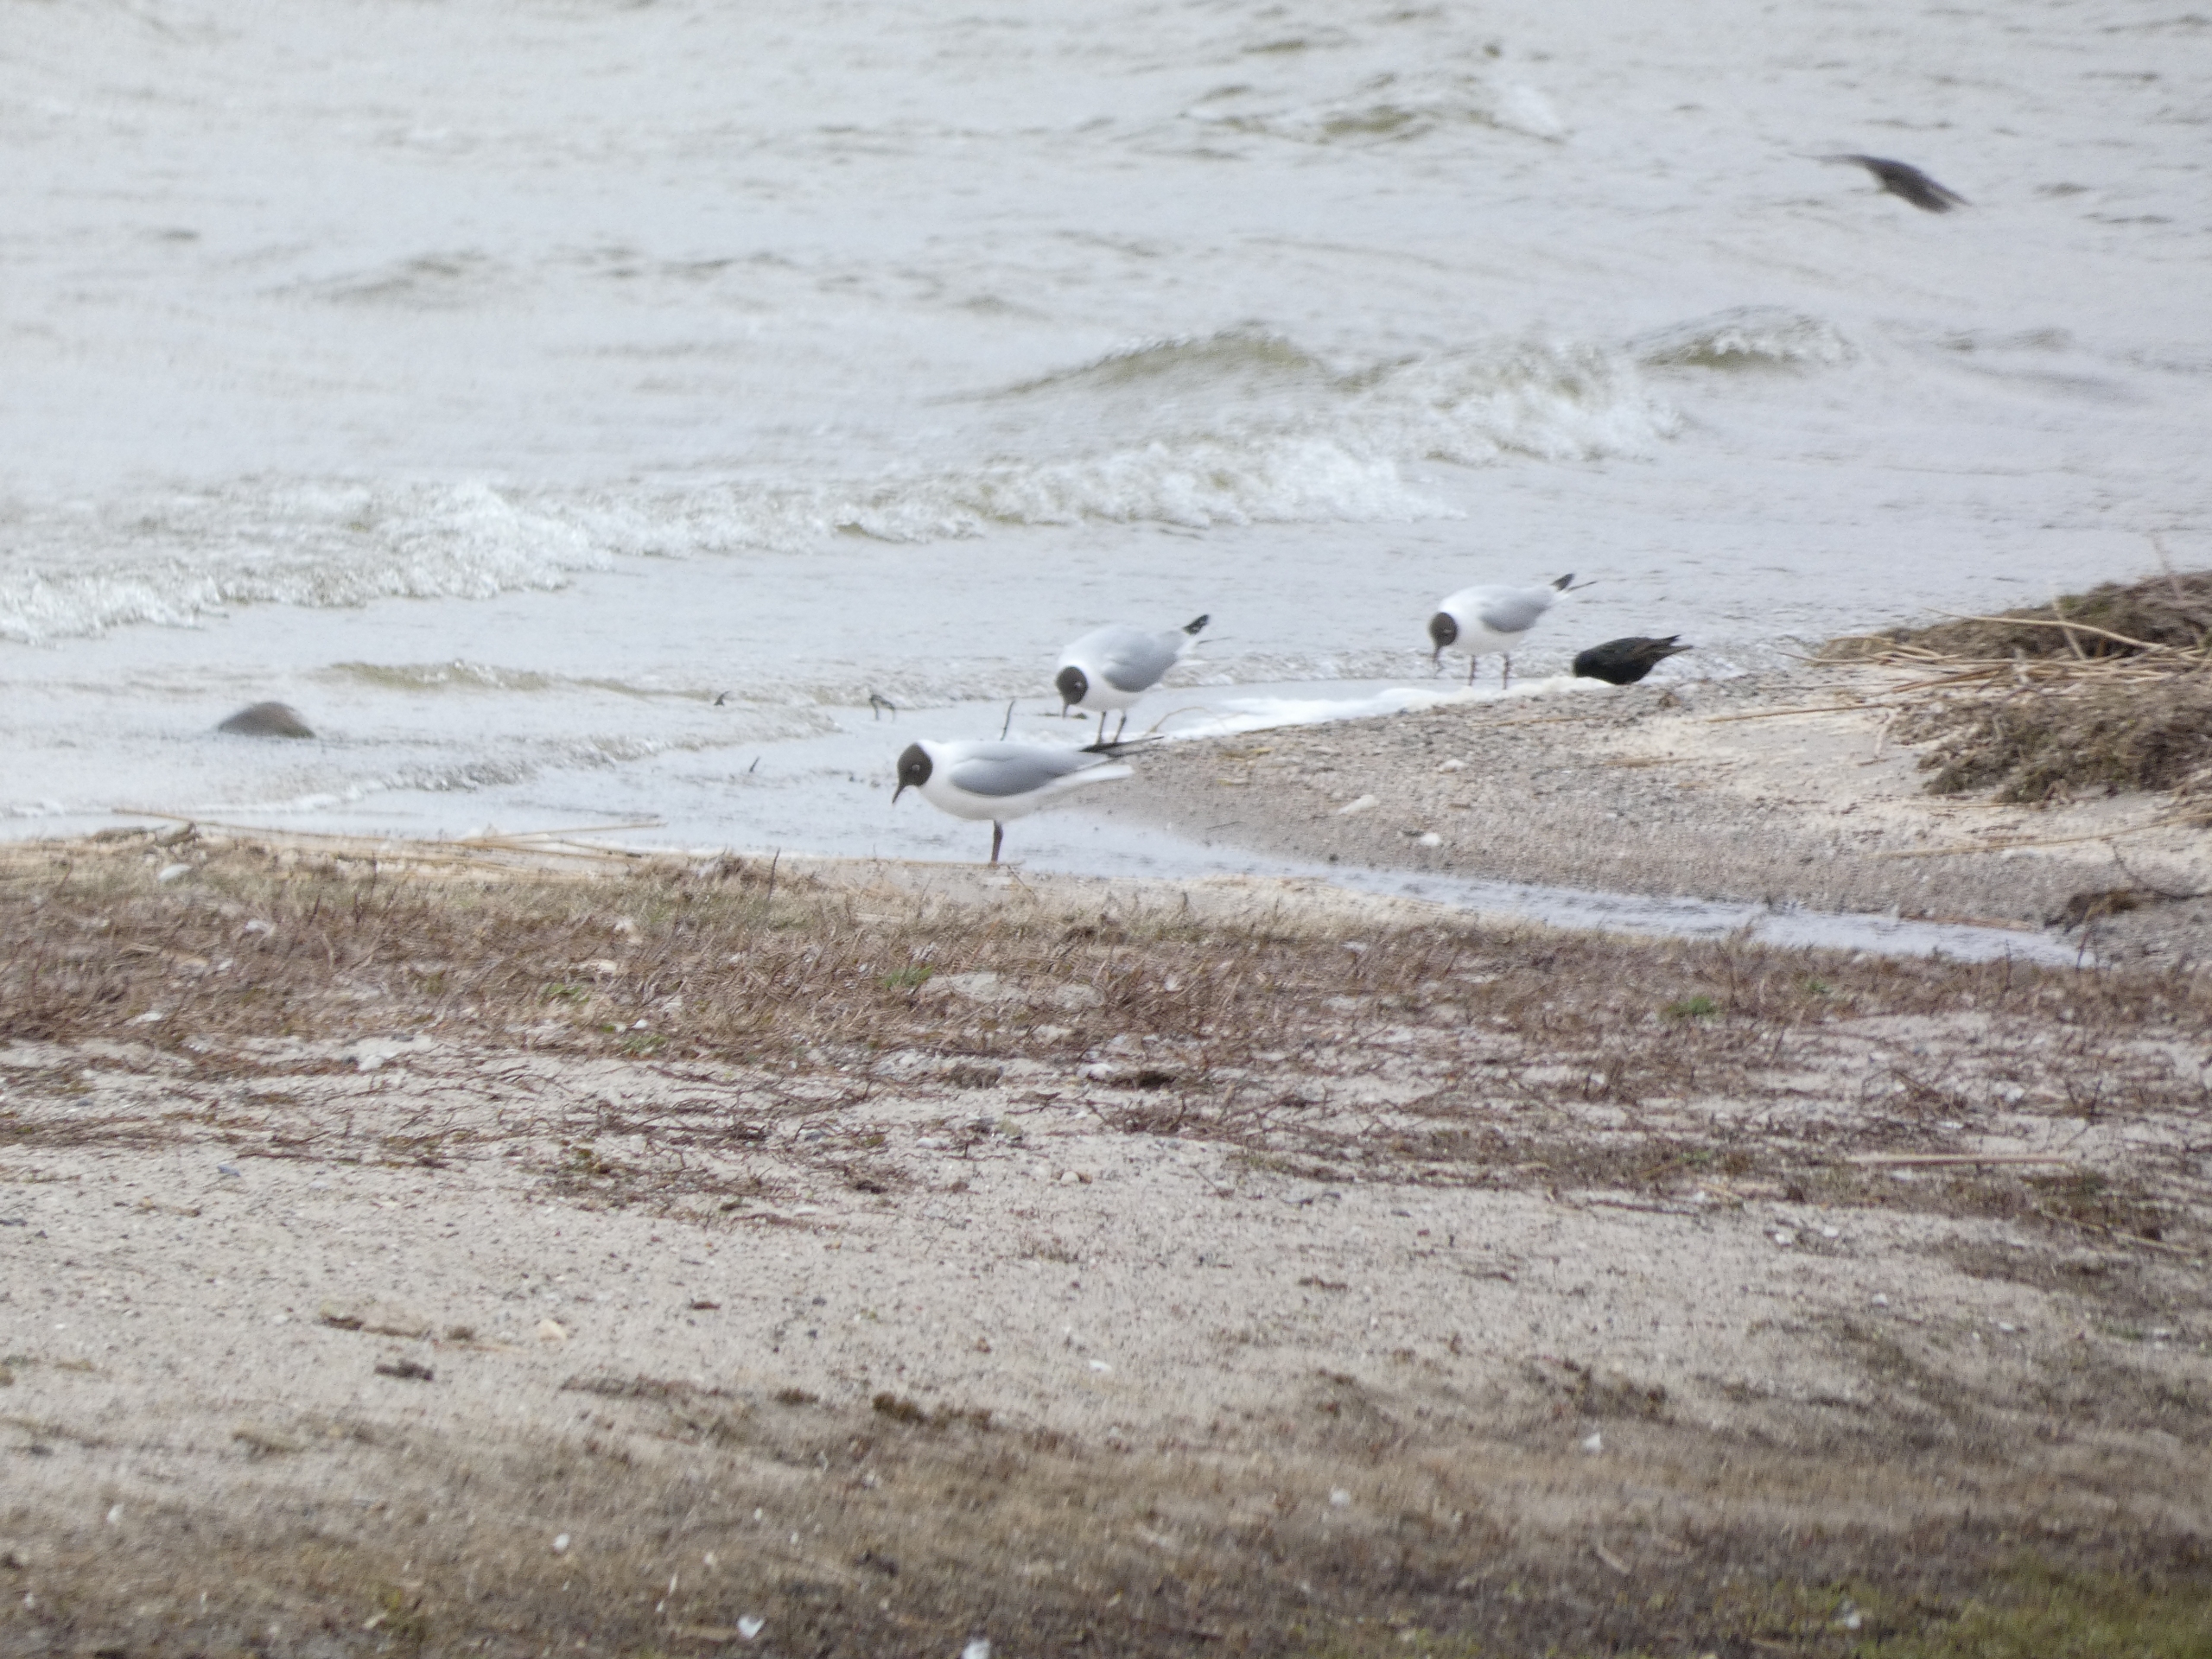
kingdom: Animalia
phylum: Chordata
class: Aves
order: Charadriiformes
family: Laridae
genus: Chroicocephalus
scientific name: Chroicocephalus ridibundus
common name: Hættemåge
